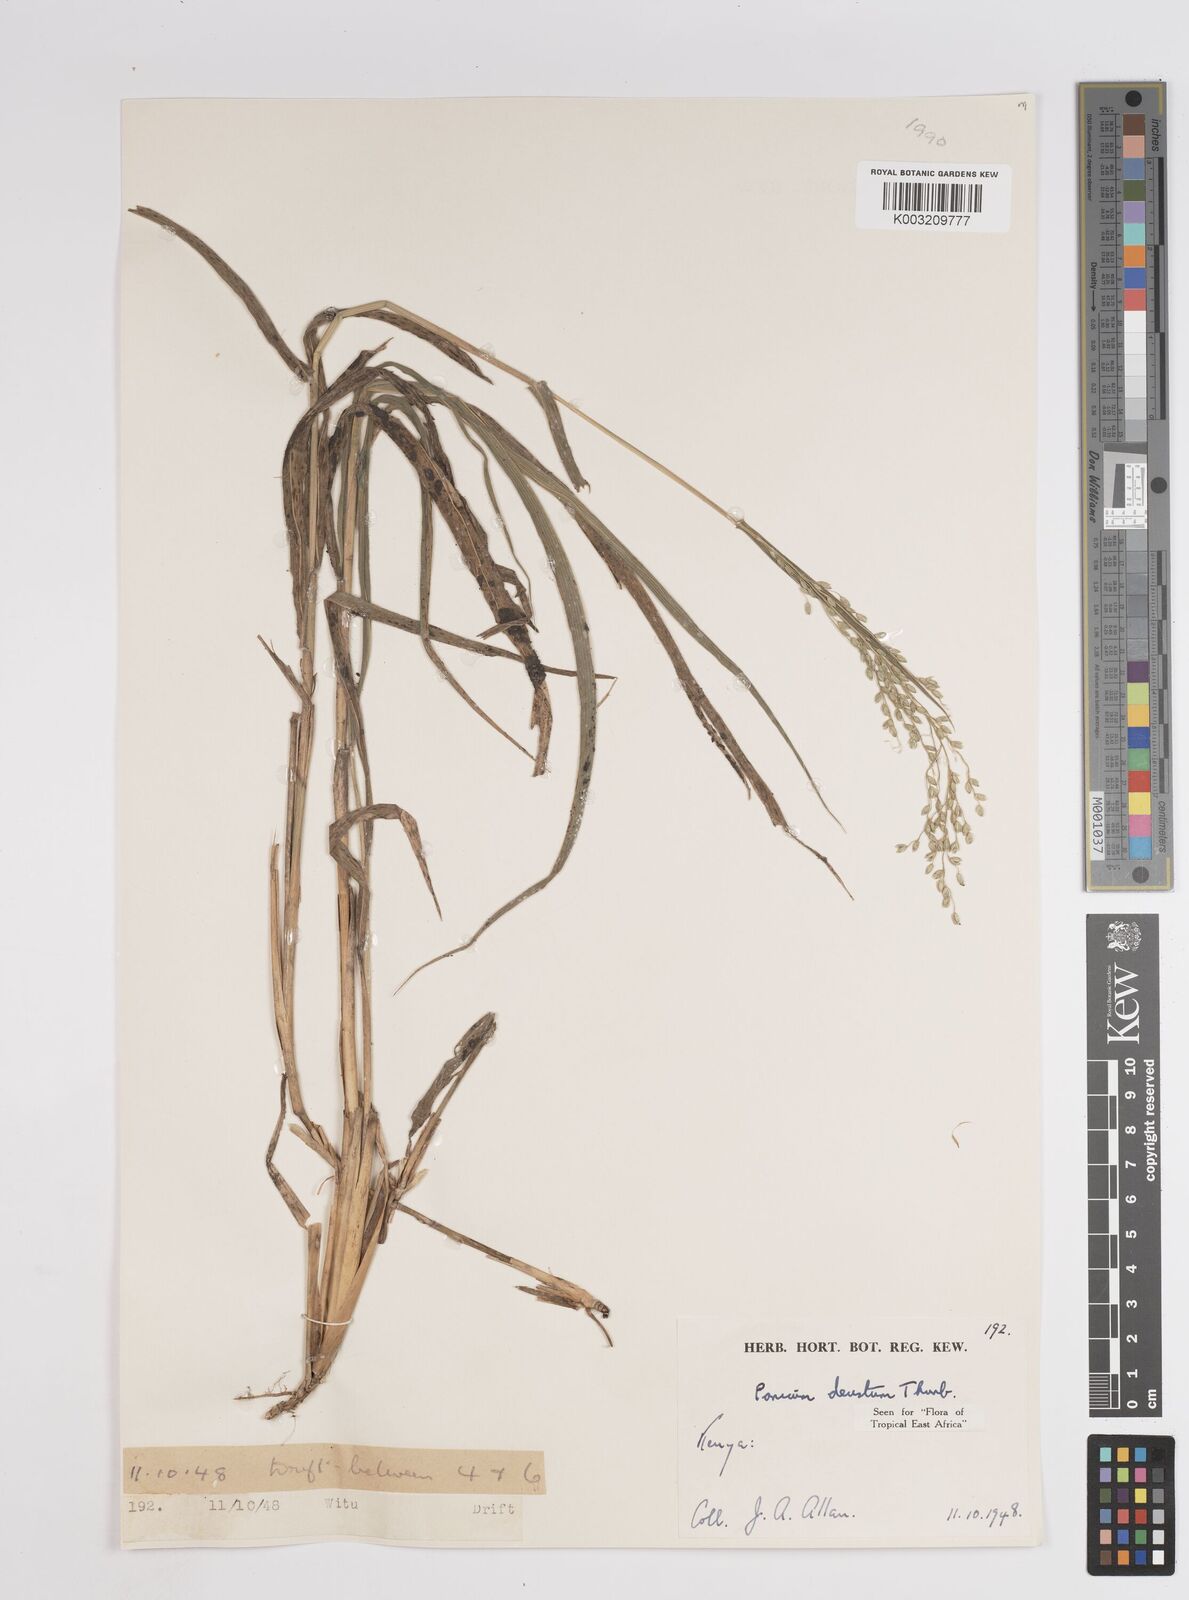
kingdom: Plantae
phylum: Tracheophyta
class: Liliopsida
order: Poales
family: Poaceae
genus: Panicum
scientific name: Panicum
